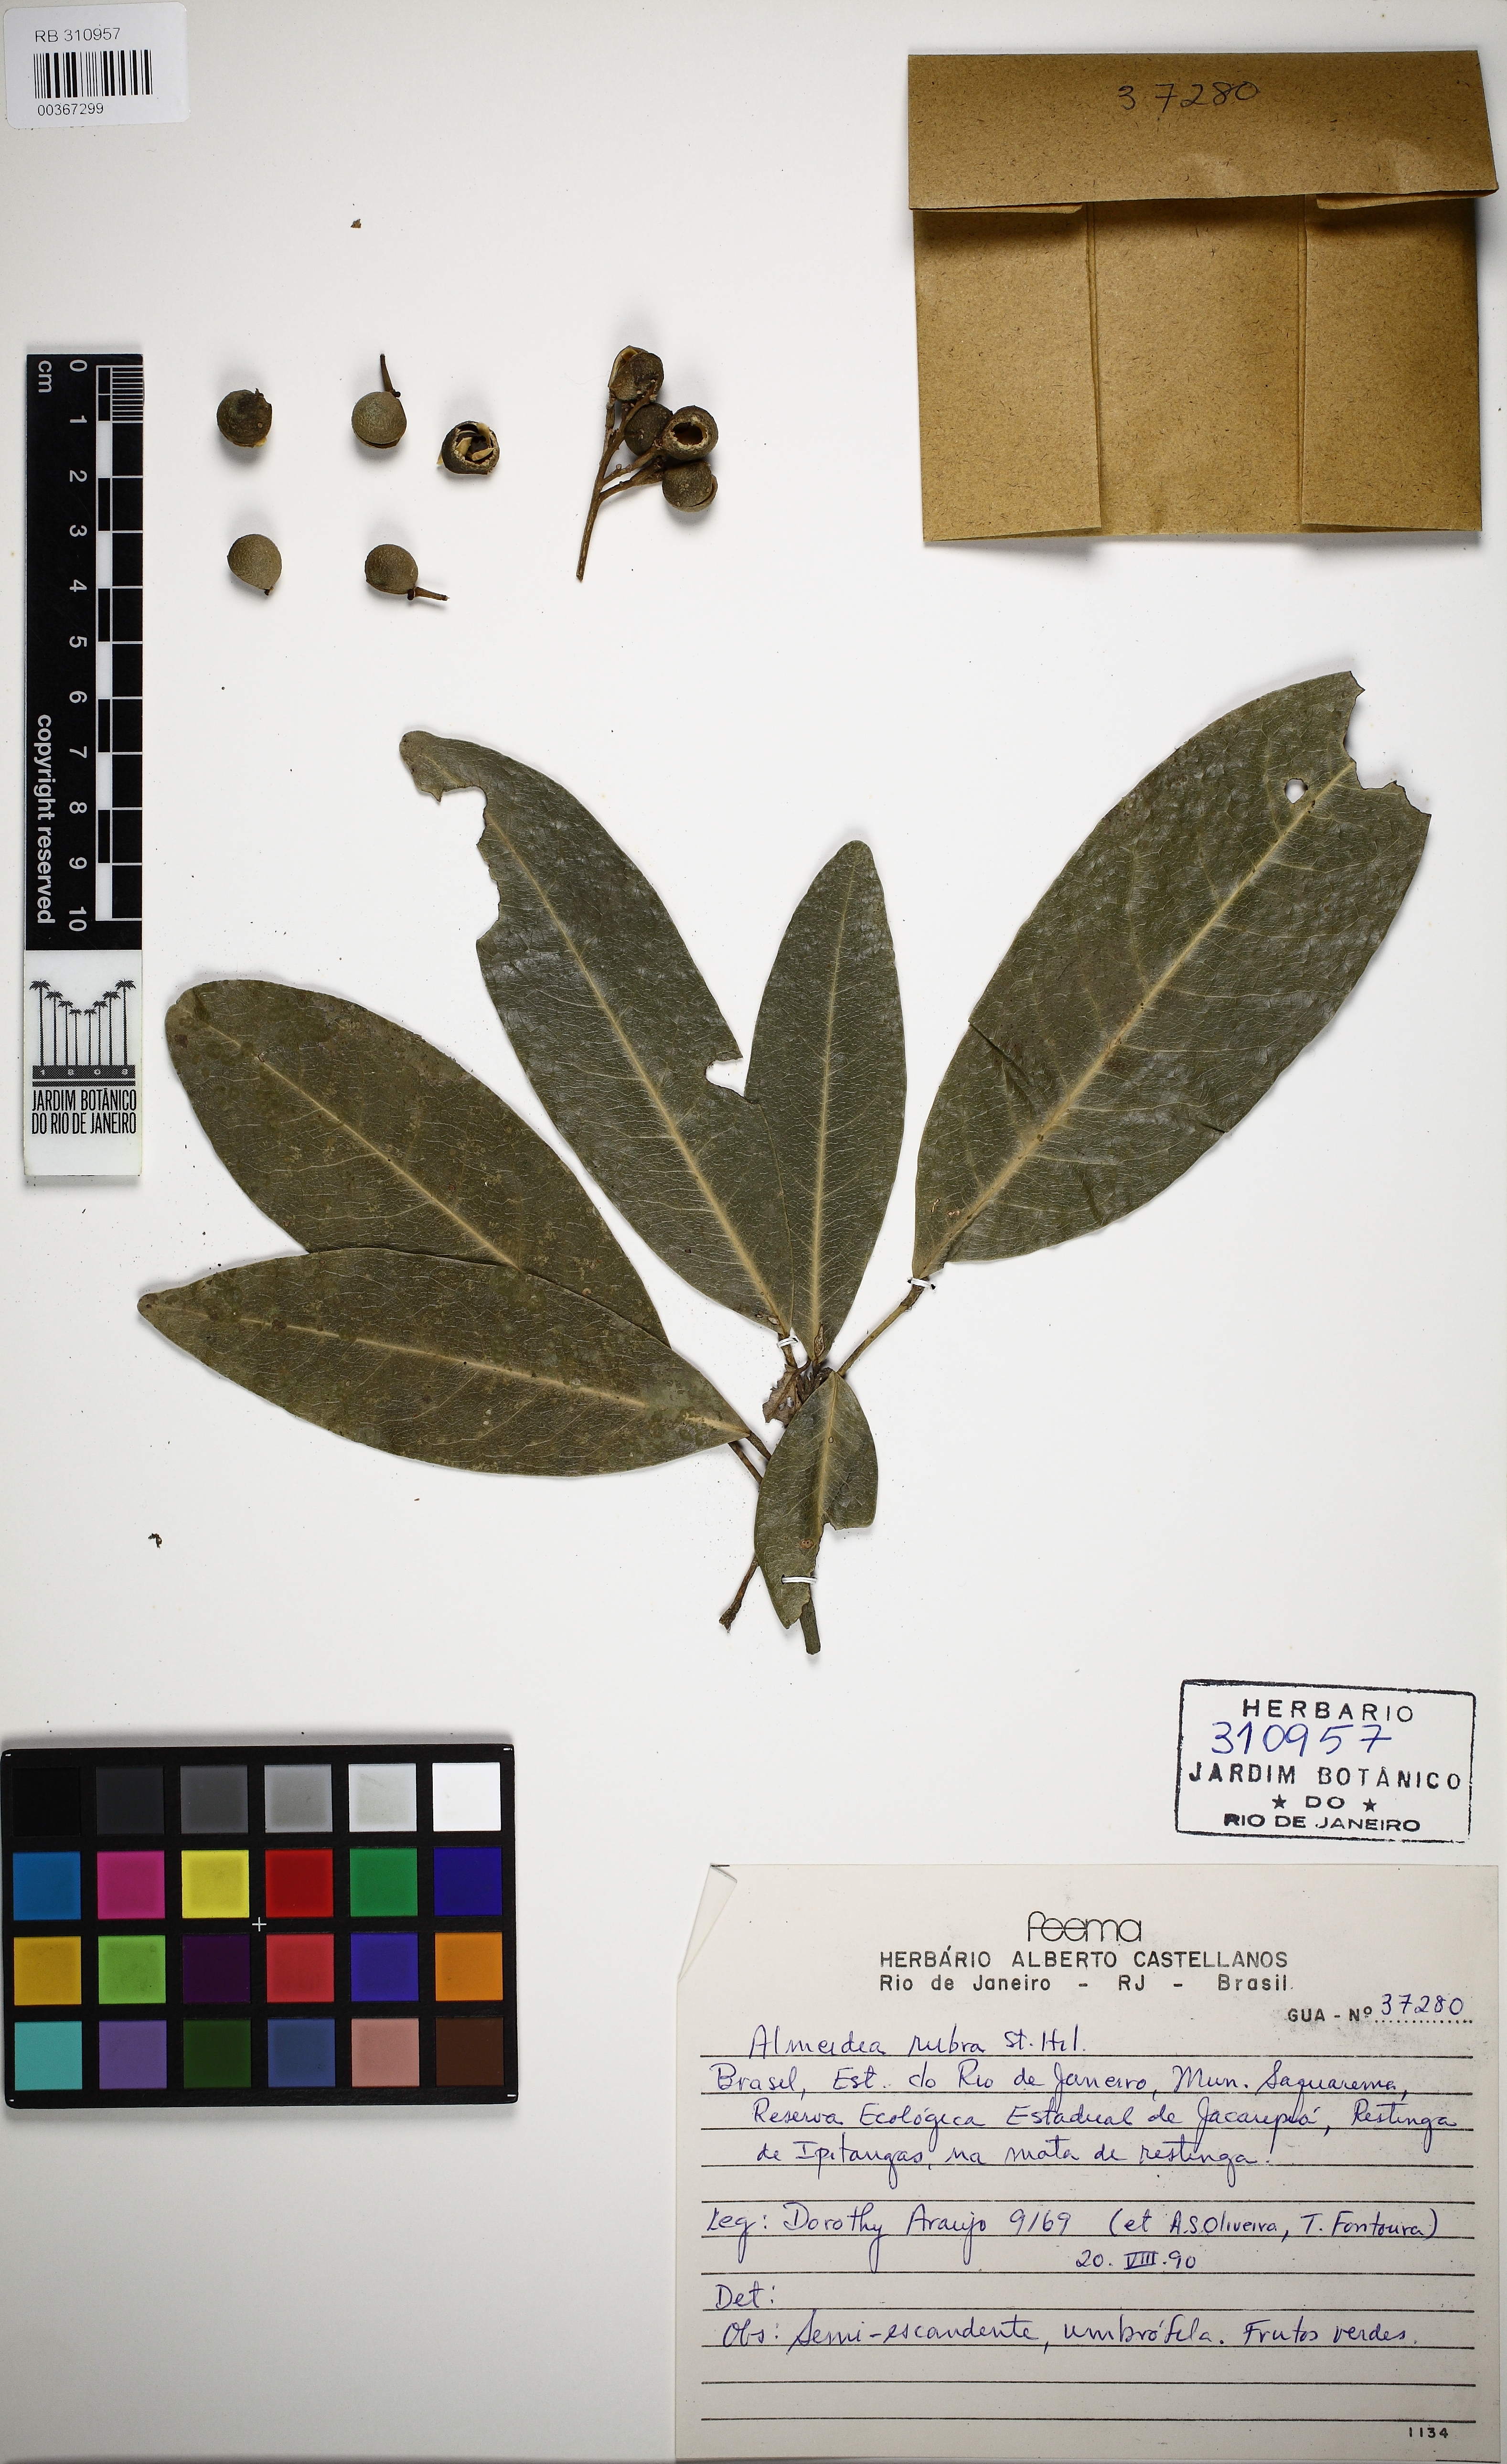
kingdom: Plantae
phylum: Tracheophyta
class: Magnoliopsida
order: Sapindales
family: Rutaceae
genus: Conchocarpus
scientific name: Conchocarpus ruber
